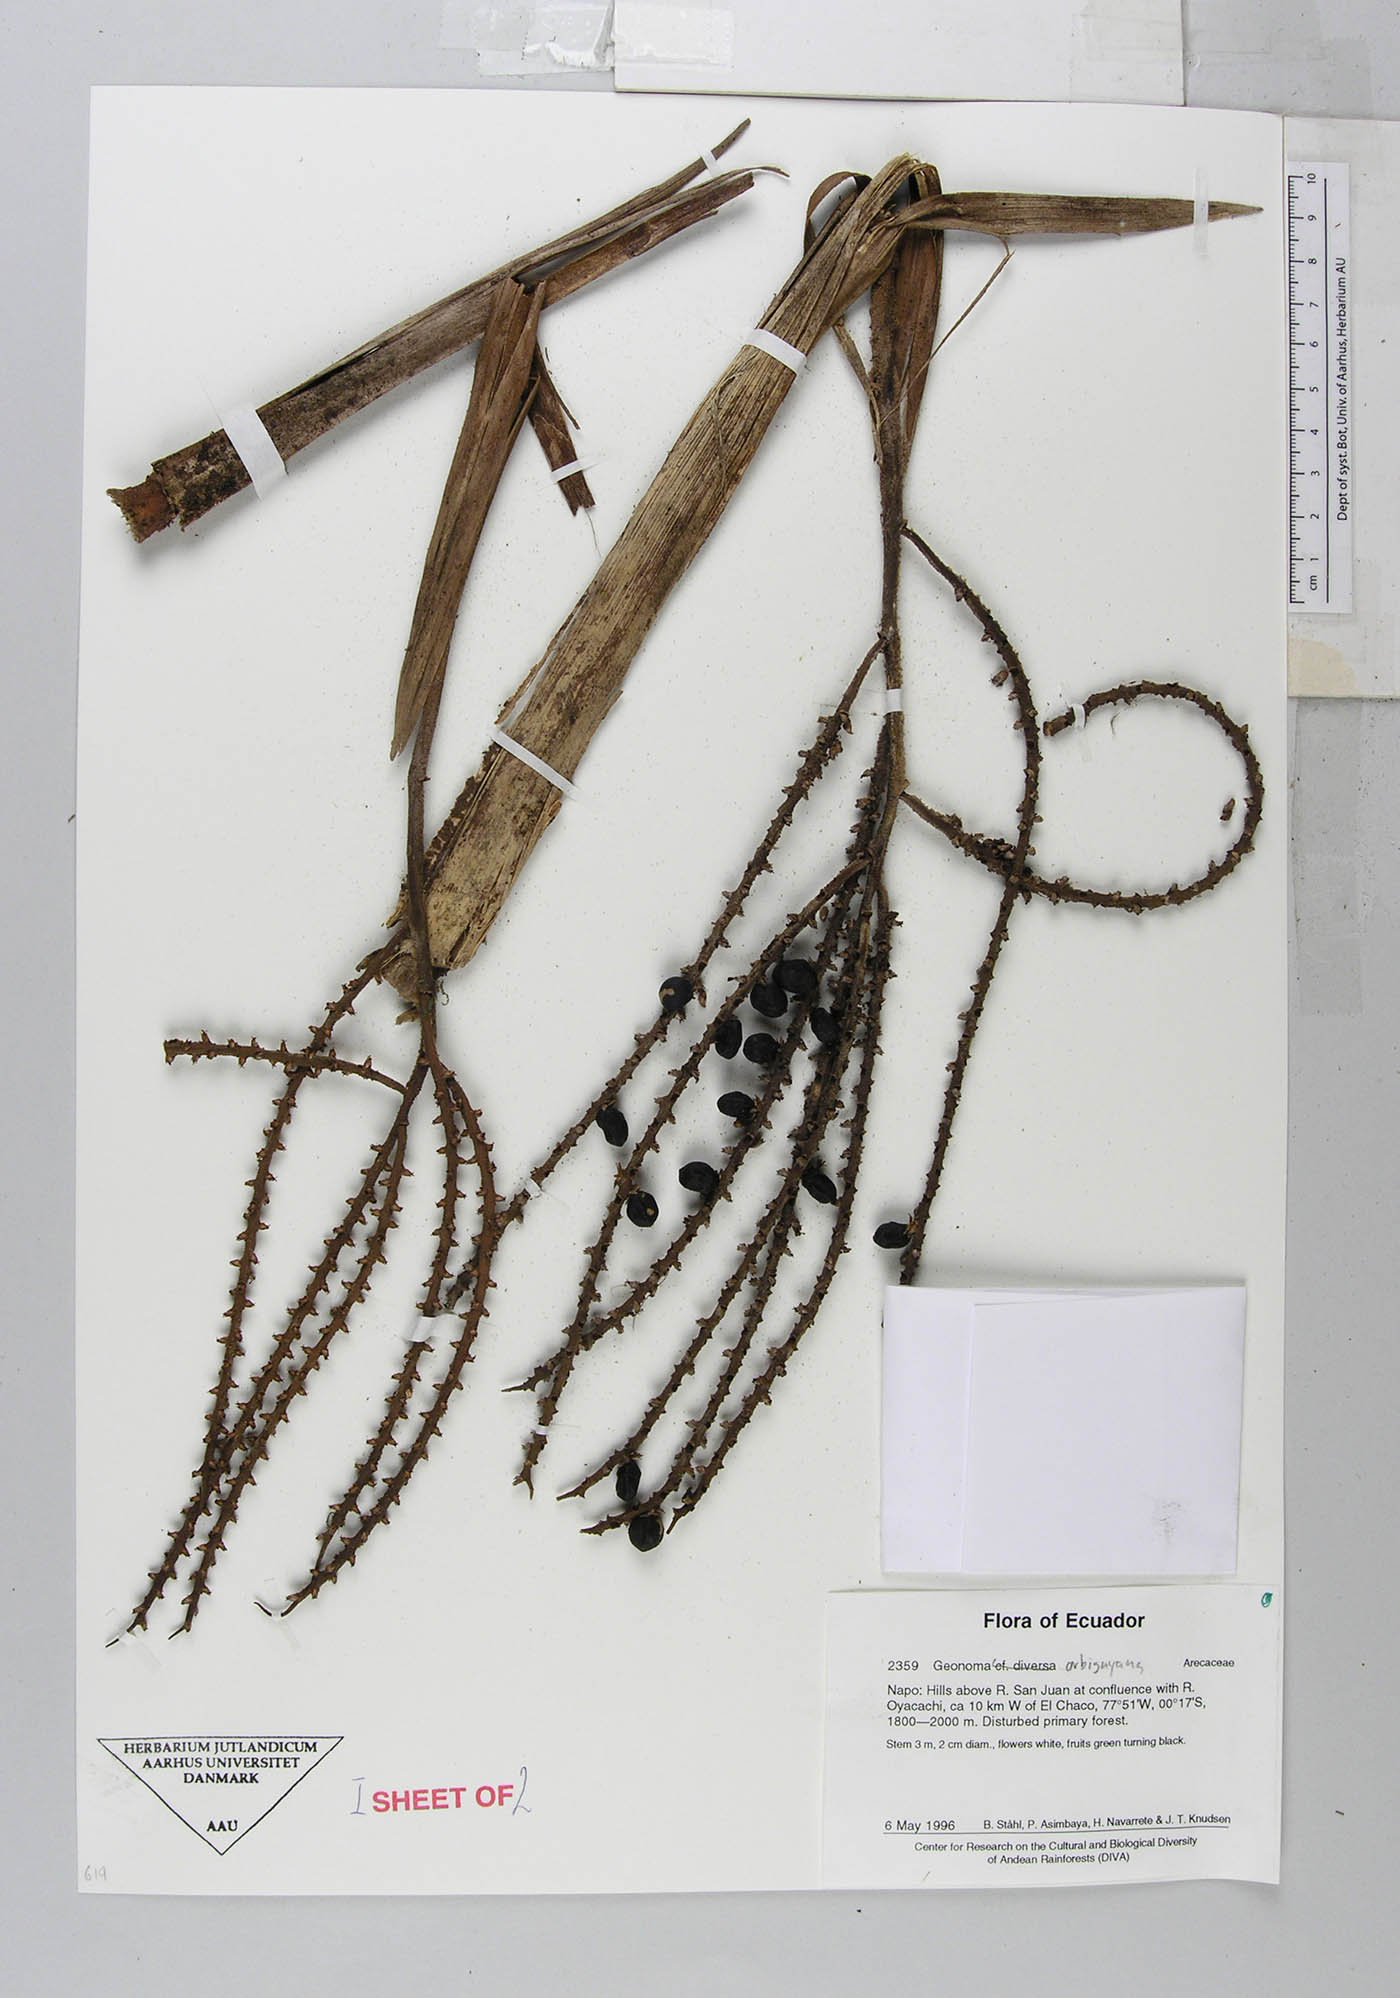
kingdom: Plantae
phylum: Tracheophyta
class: Liliopsida
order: Arecales
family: Arecaceae
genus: Geonoma
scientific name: Geonoma orbignyana
